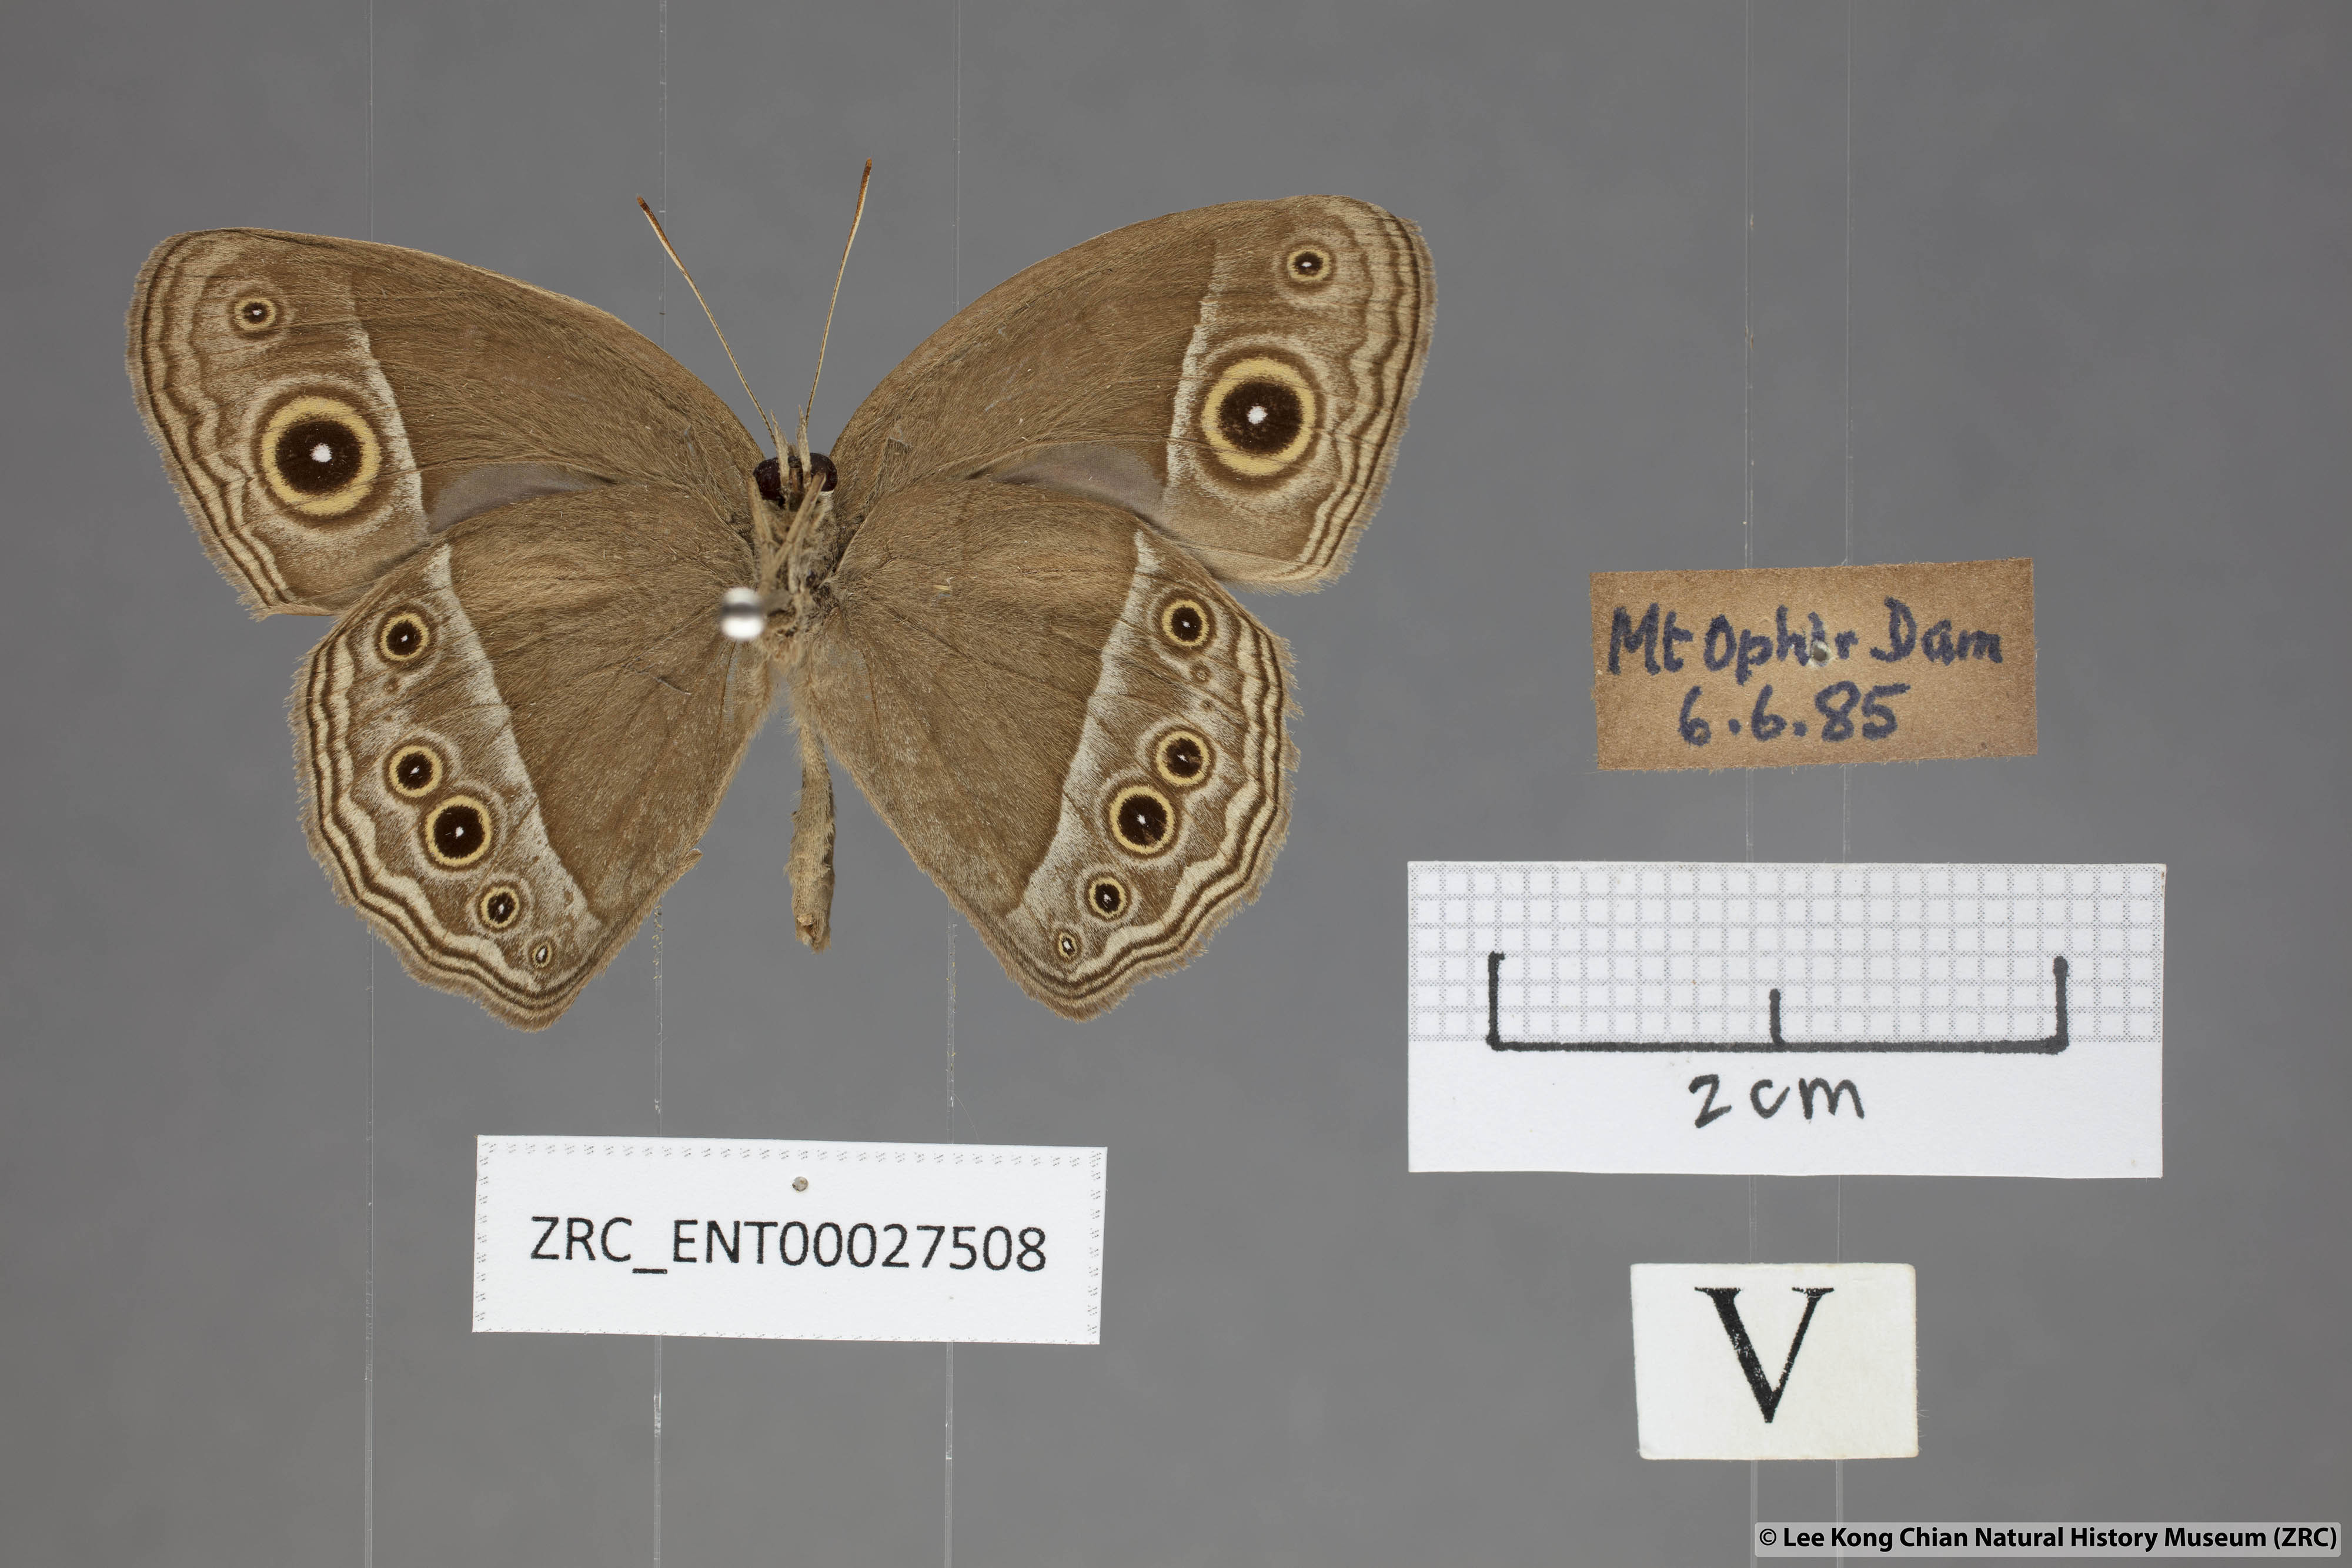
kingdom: Animalia
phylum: Arthropoda
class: Insecta
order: Lepidoptera
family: Nymphalidae
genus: Mycalesis
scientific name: Mycalesis mineus
